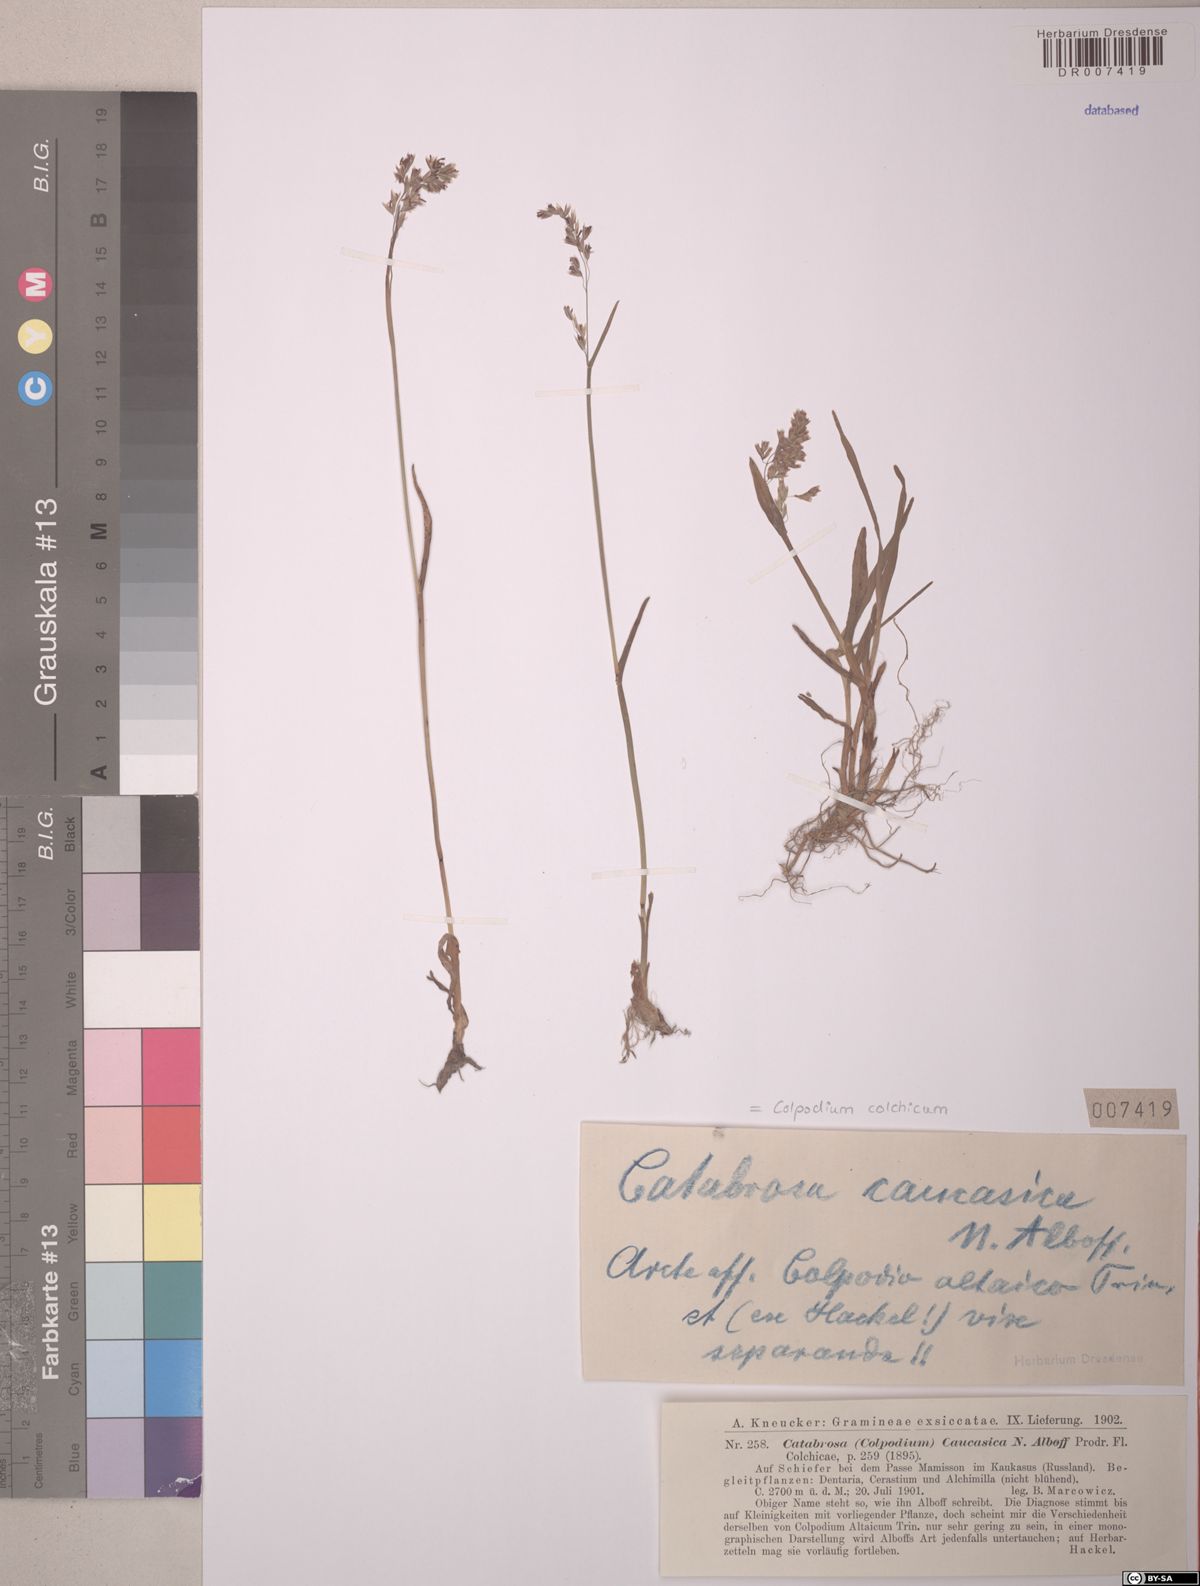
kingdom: Plantae
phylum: Tracheophyta
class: Liliopsida
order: Poales
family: Poaceae
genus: Paracolpodium
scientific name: Paracolpodium colchicum
